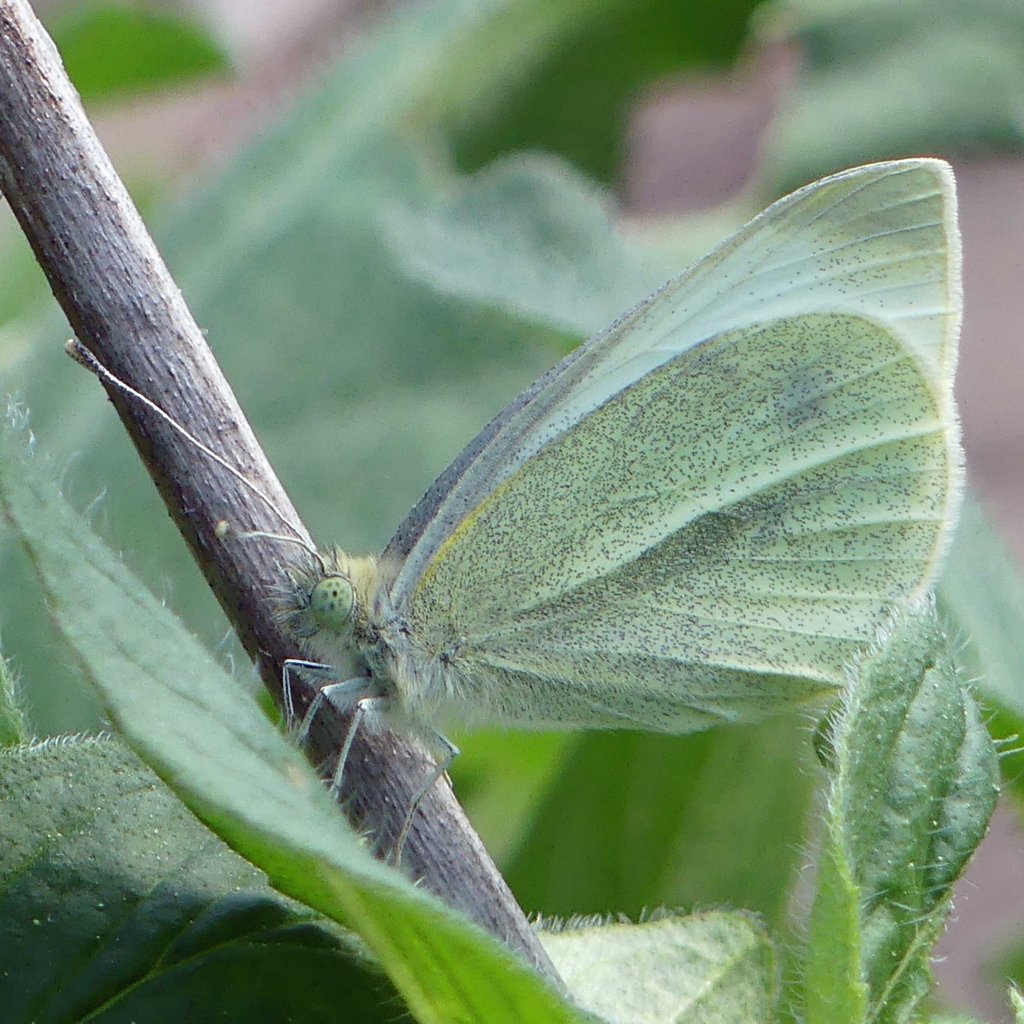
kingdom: Animalia
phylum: Arthropoda
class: Insecta
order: Lepidoptera
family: Pieridae
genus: Pieris
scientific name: Pieris rapae
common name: Cabbage White
